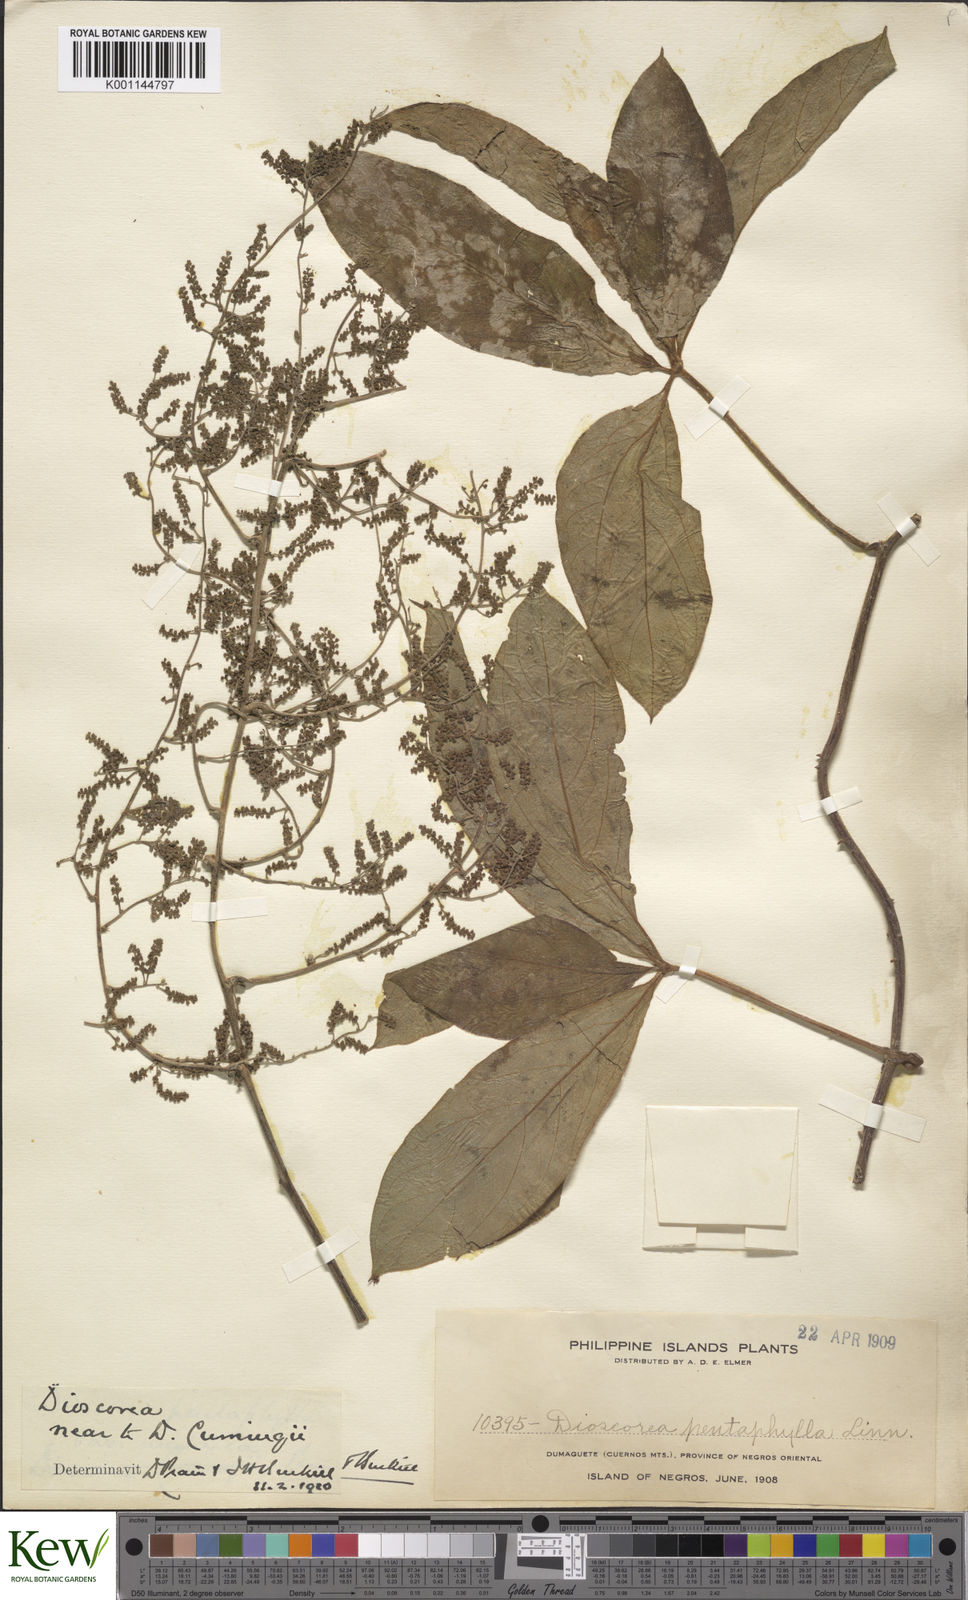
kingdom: Plantae
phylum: Tracheophyta
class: Liliopsida
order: Dioscoreales
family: Dioscoreaceae
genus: Dioscorea
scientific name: Dioscorea cumingii
